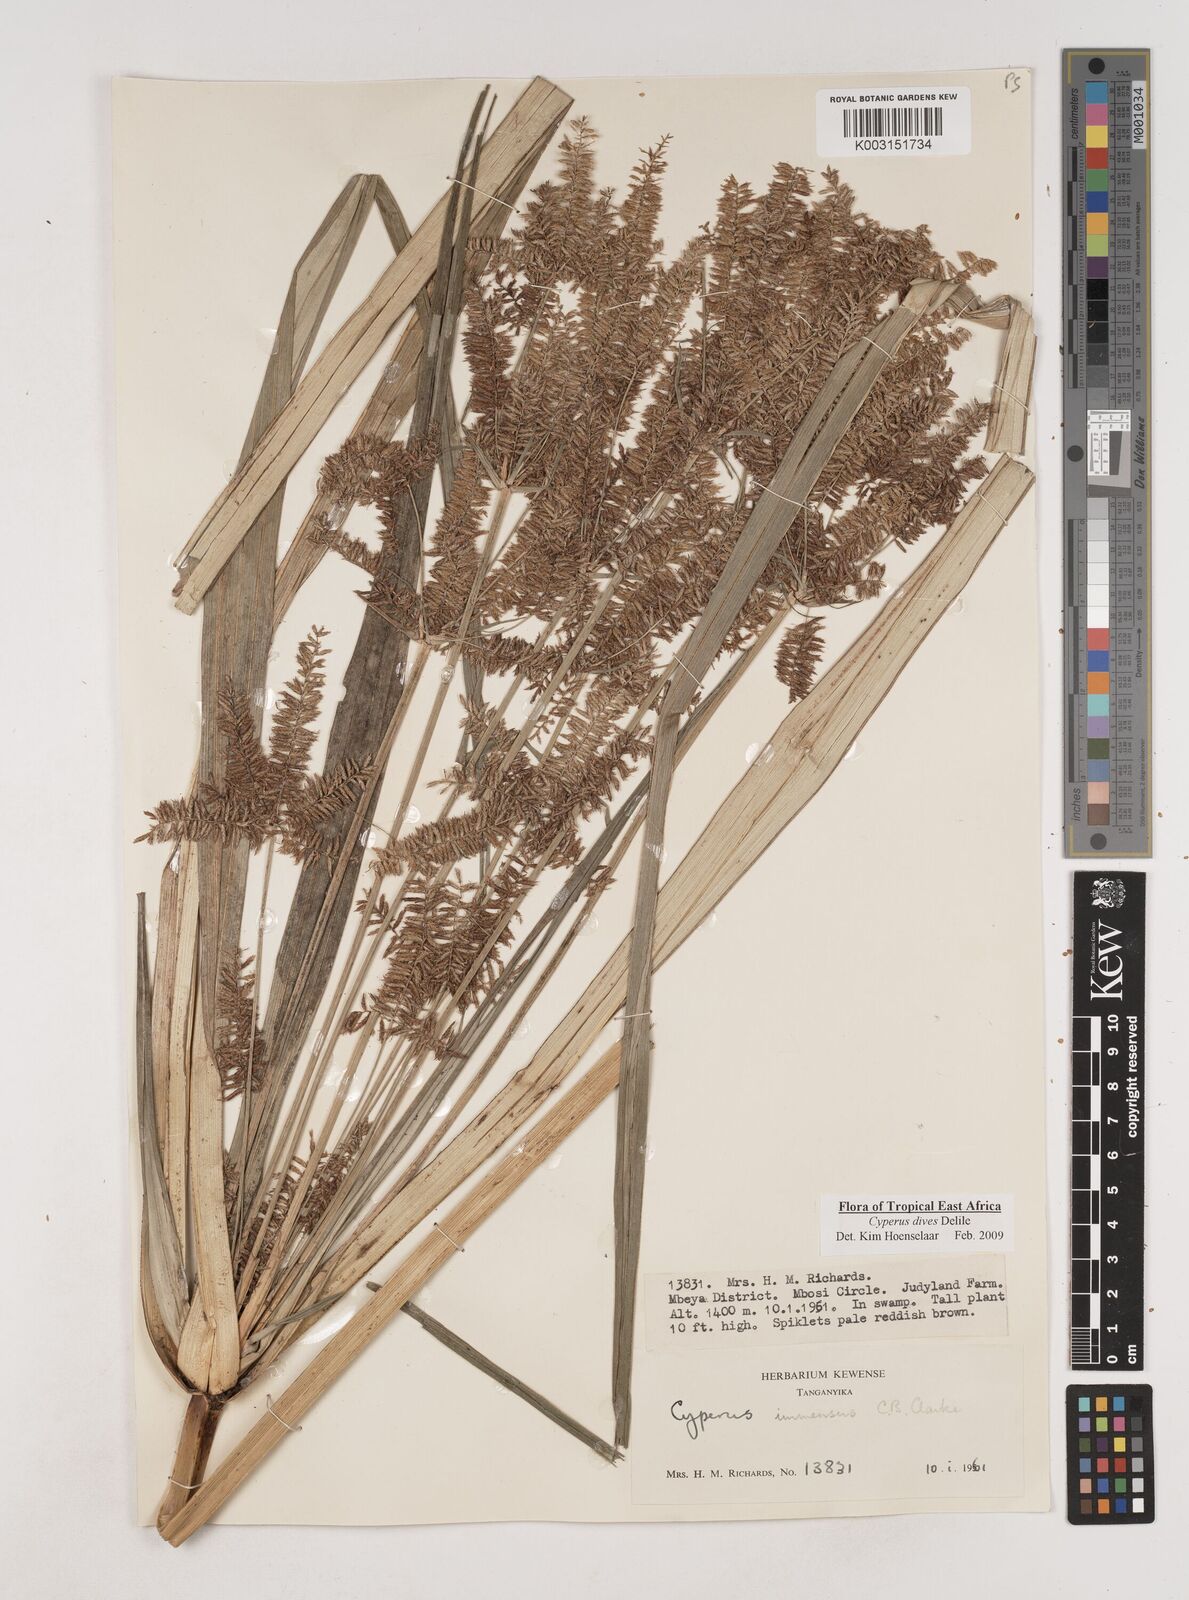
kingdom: Plantae
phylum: Tracheophyta
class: Liliopsida
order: Poales
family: Cyperaceae
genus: Cyperus
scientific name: Cyperus dives
